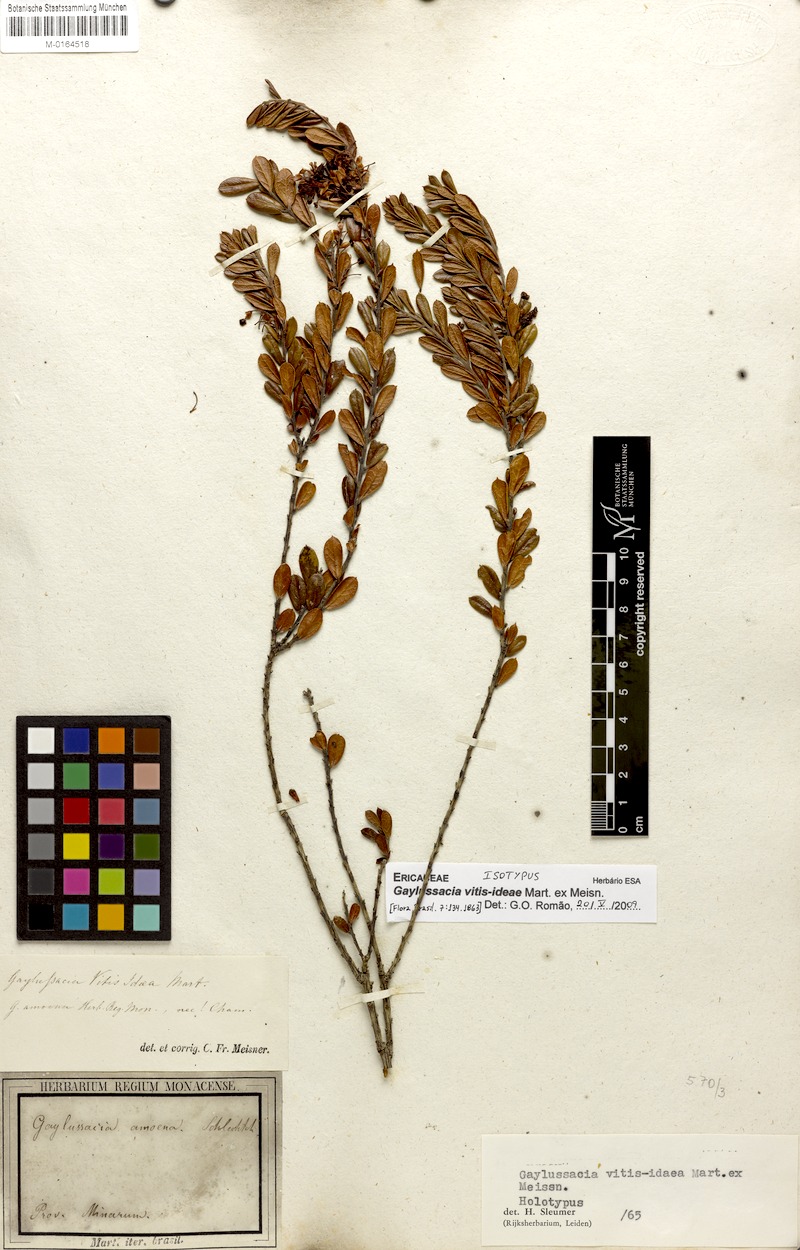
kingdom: Plantae
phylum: Tracheophyta
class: Magnoliopsida
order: Ericales
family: Ericaceae
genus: Gaylussacia
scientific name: Gaylussacia vitis-idaea
